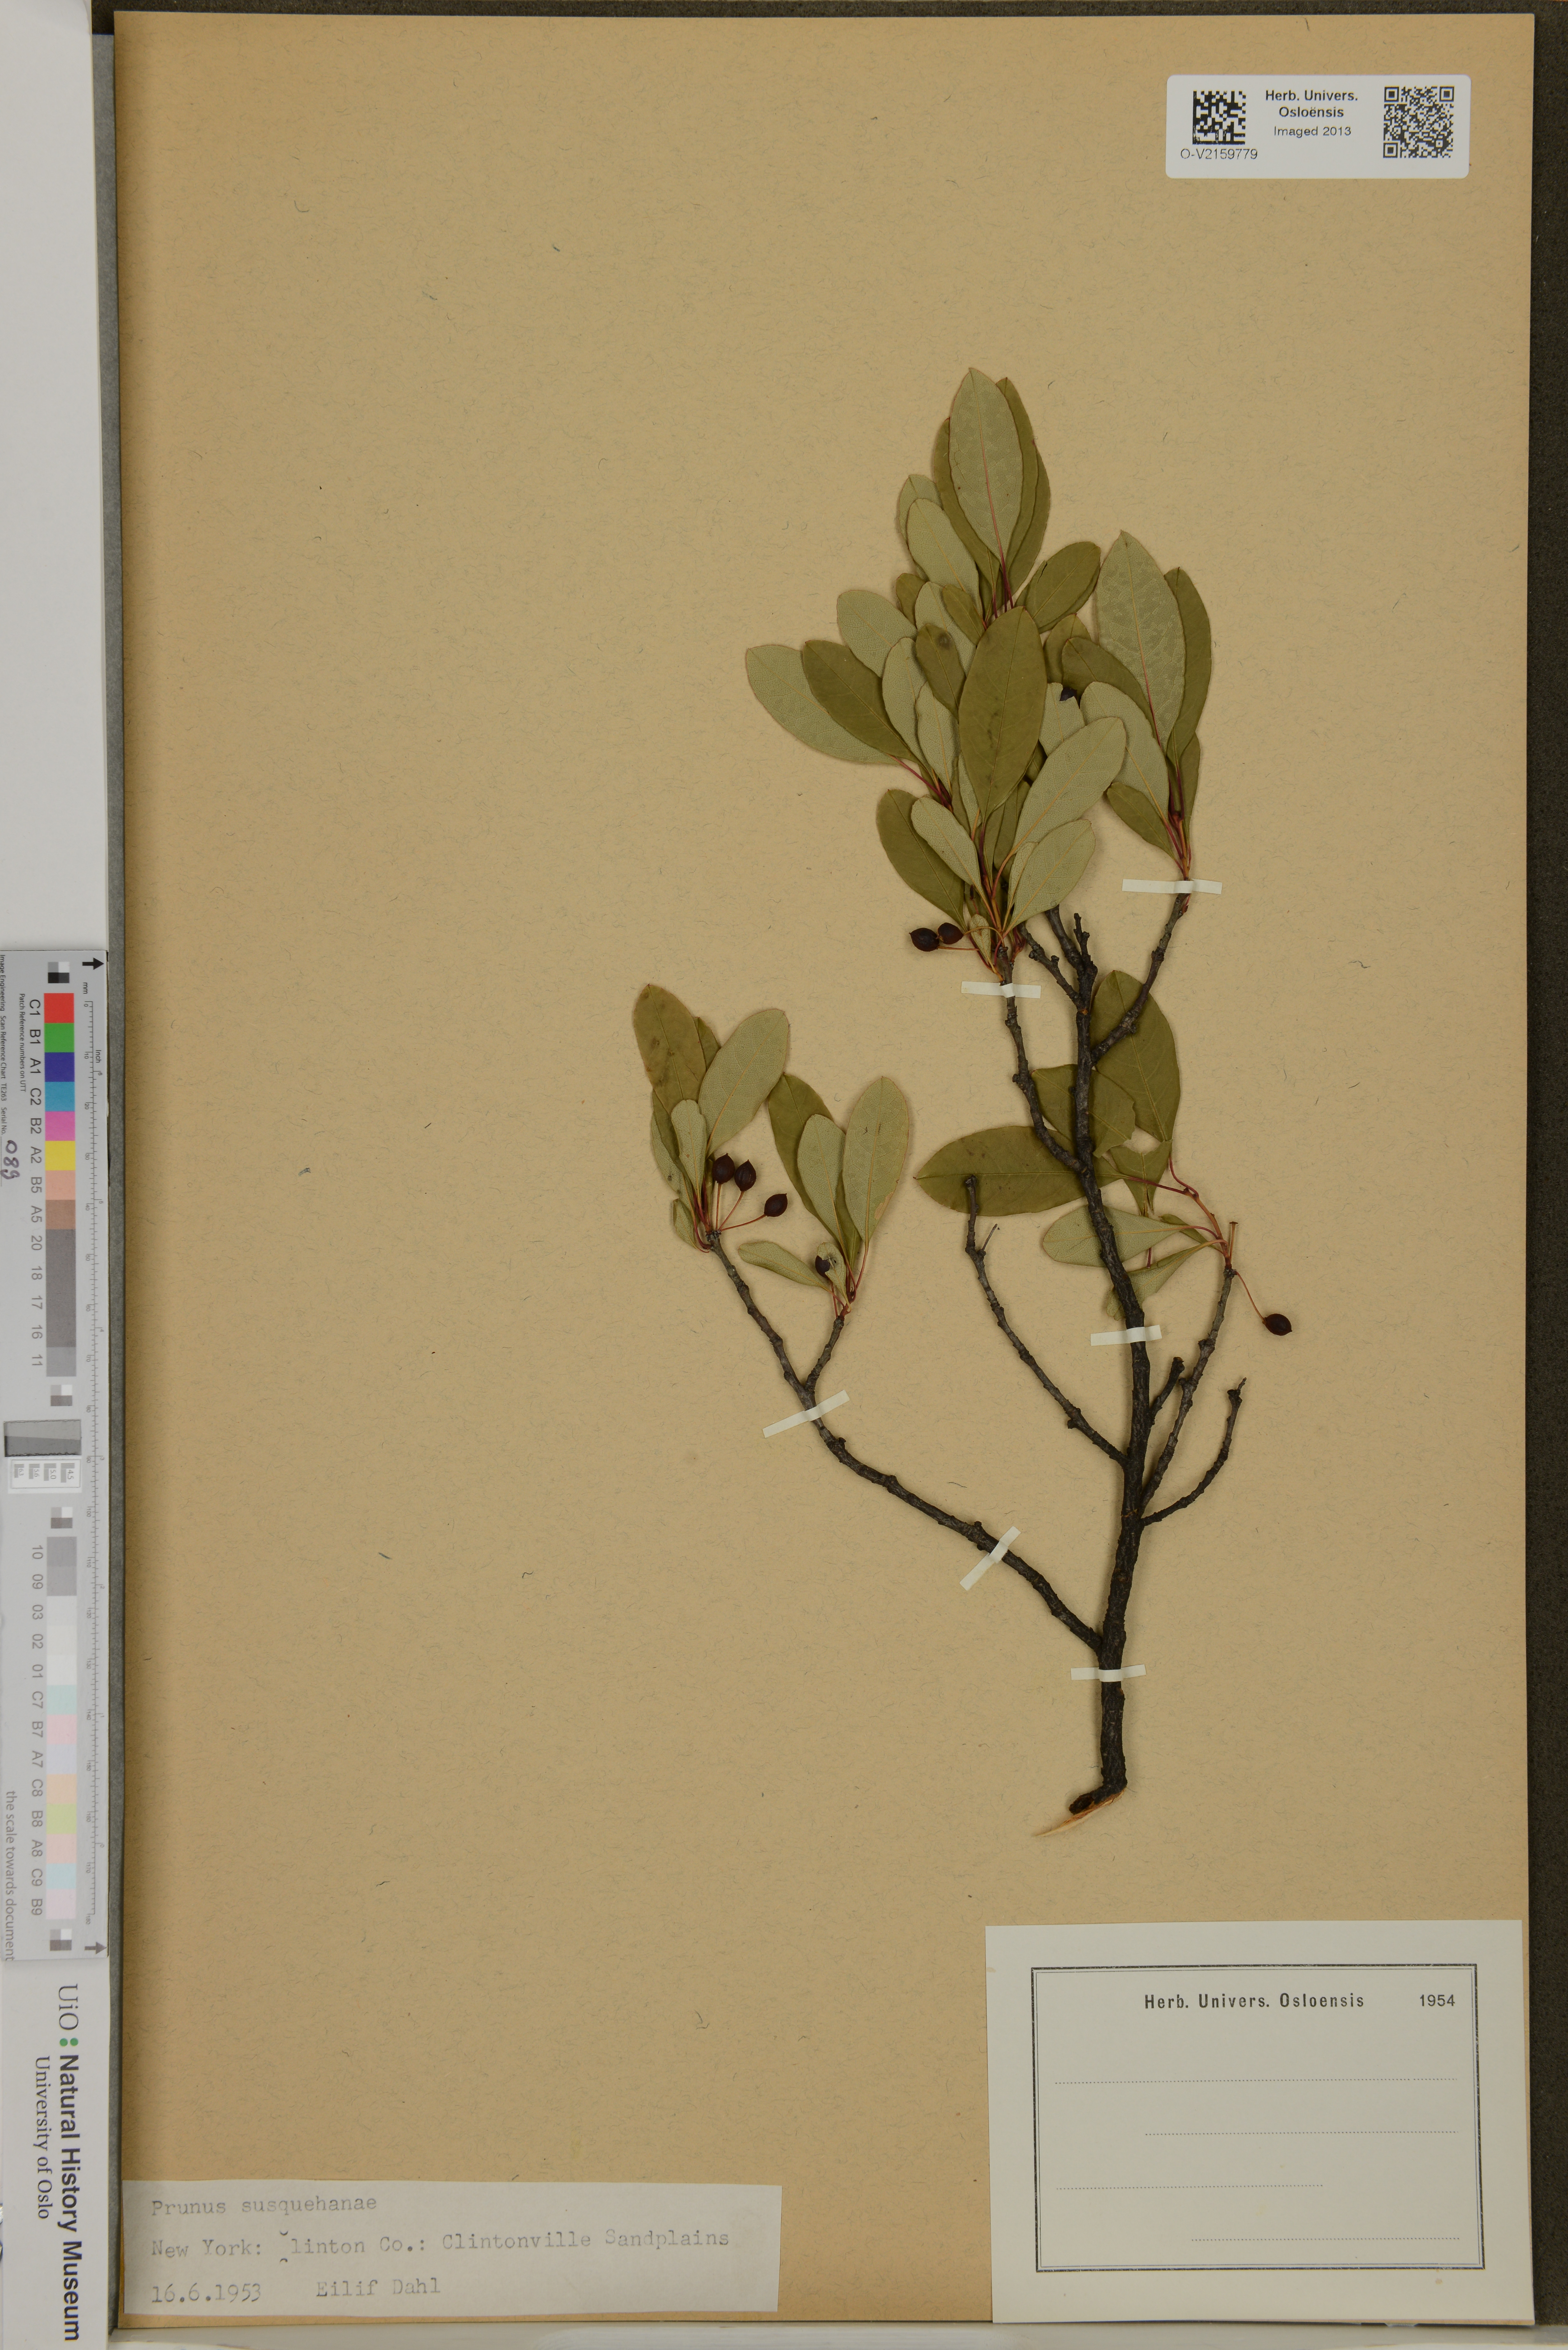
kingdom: Plantae
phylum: Tracheophyta
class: Magnoliopsida
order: Rosales
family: Rosaceae
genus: Prunus
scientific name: Prunus susquehanae
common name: Sesquehana sandcherry
